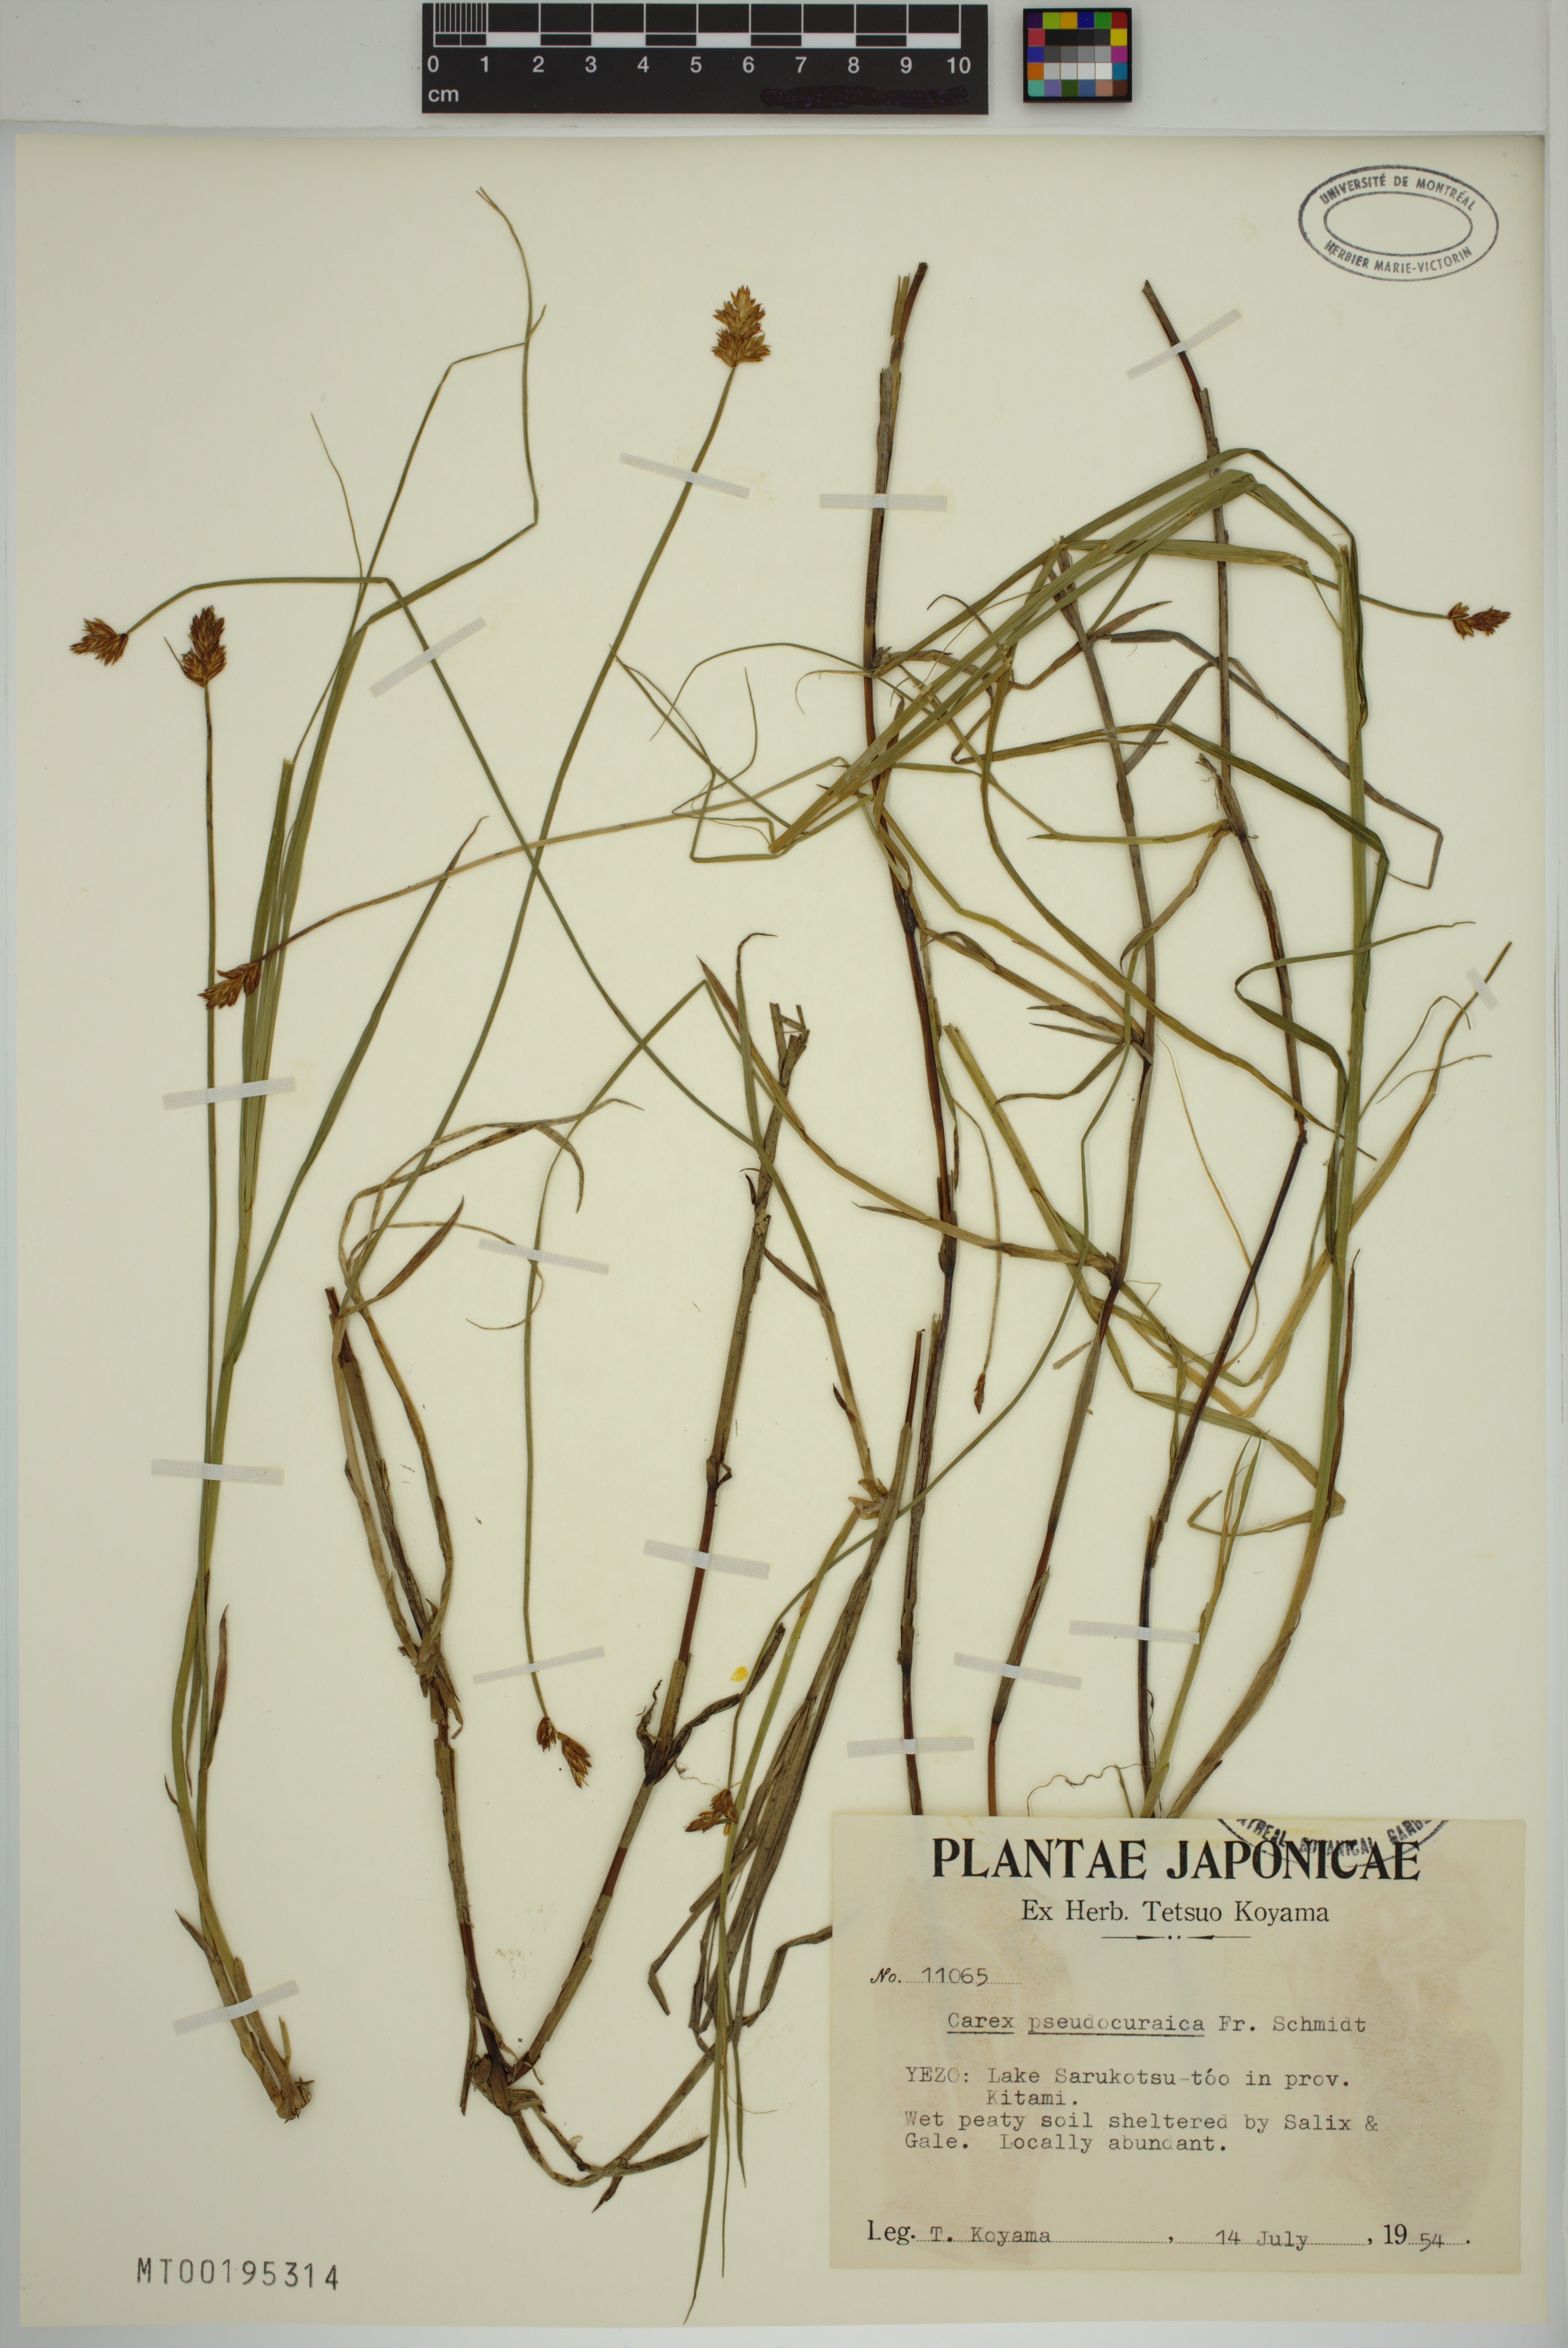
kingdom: Plantae
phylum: Tracheophyta
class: Liliopsida
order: Poales
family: Cyperaceae
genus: Carex
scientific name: Carex pseudocuraica
